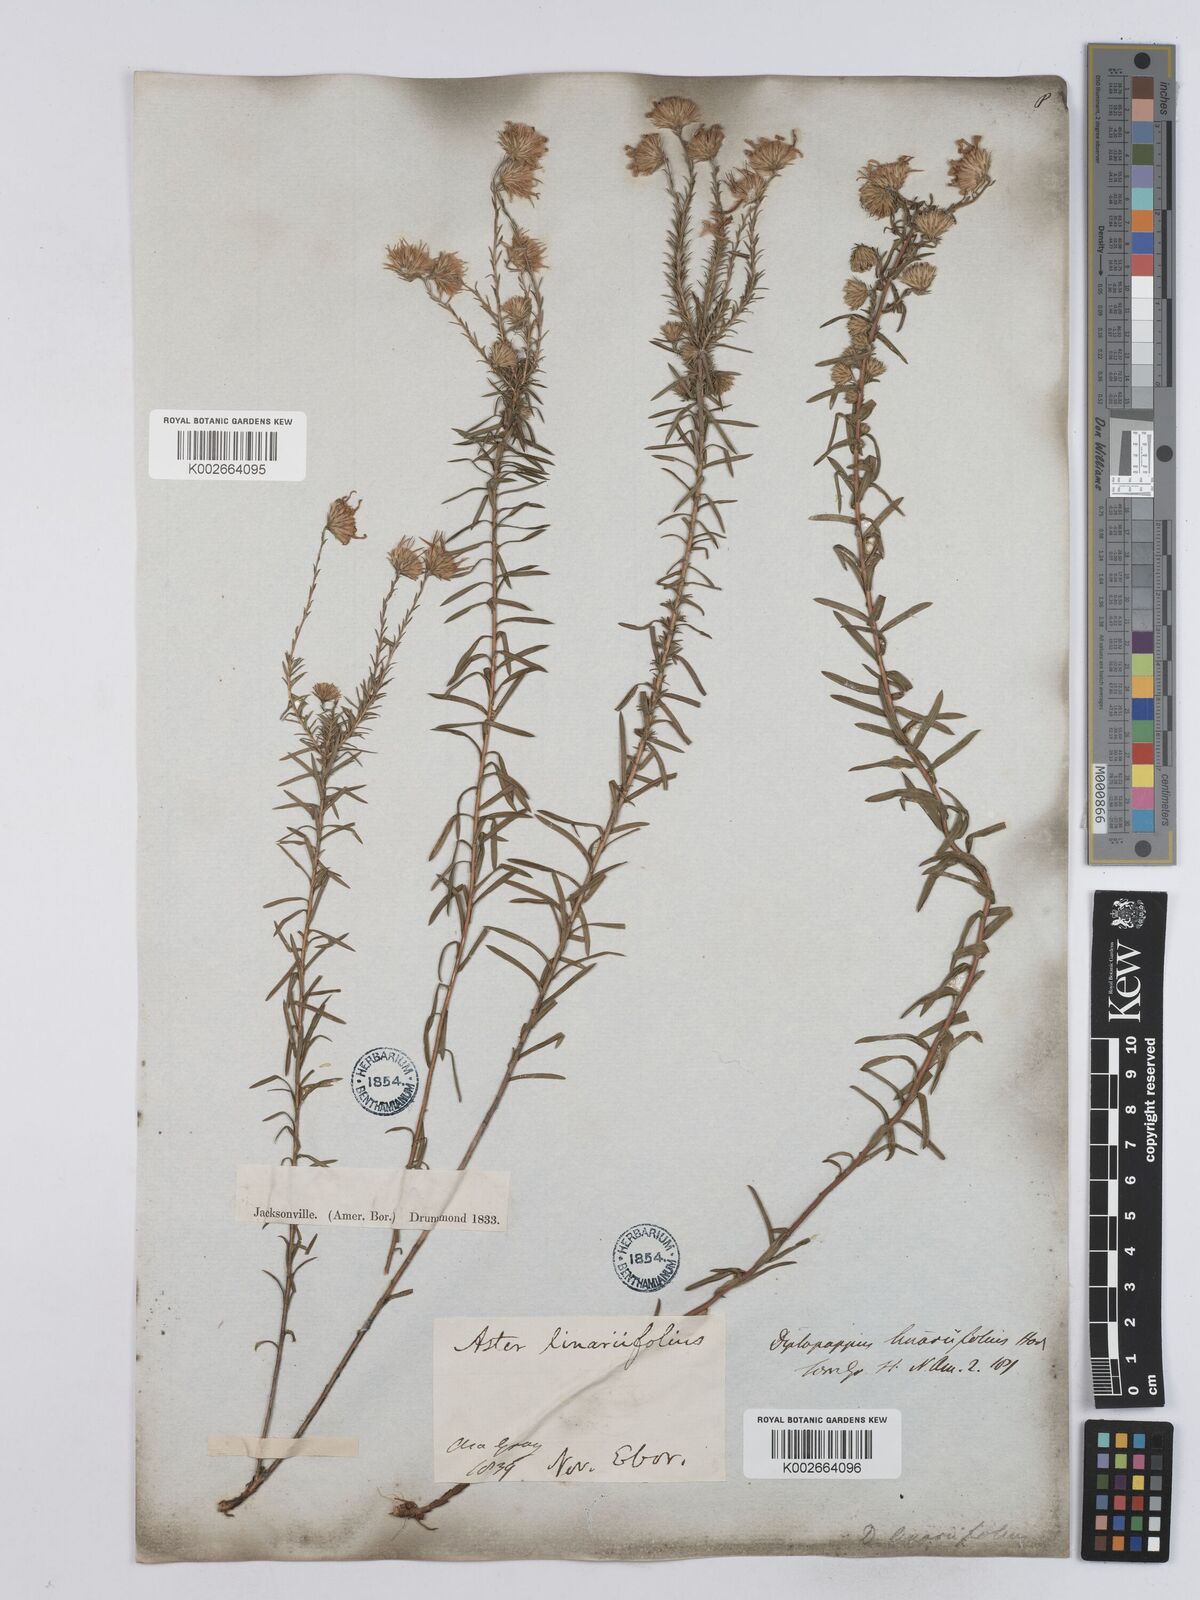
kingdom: Plantae
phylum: Tracheophyta
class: Magnoliopsida
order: Asterales
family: Asteraceae
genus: Ionactis
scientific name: Ionactis linariifolia
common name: Flax-leaf aster
